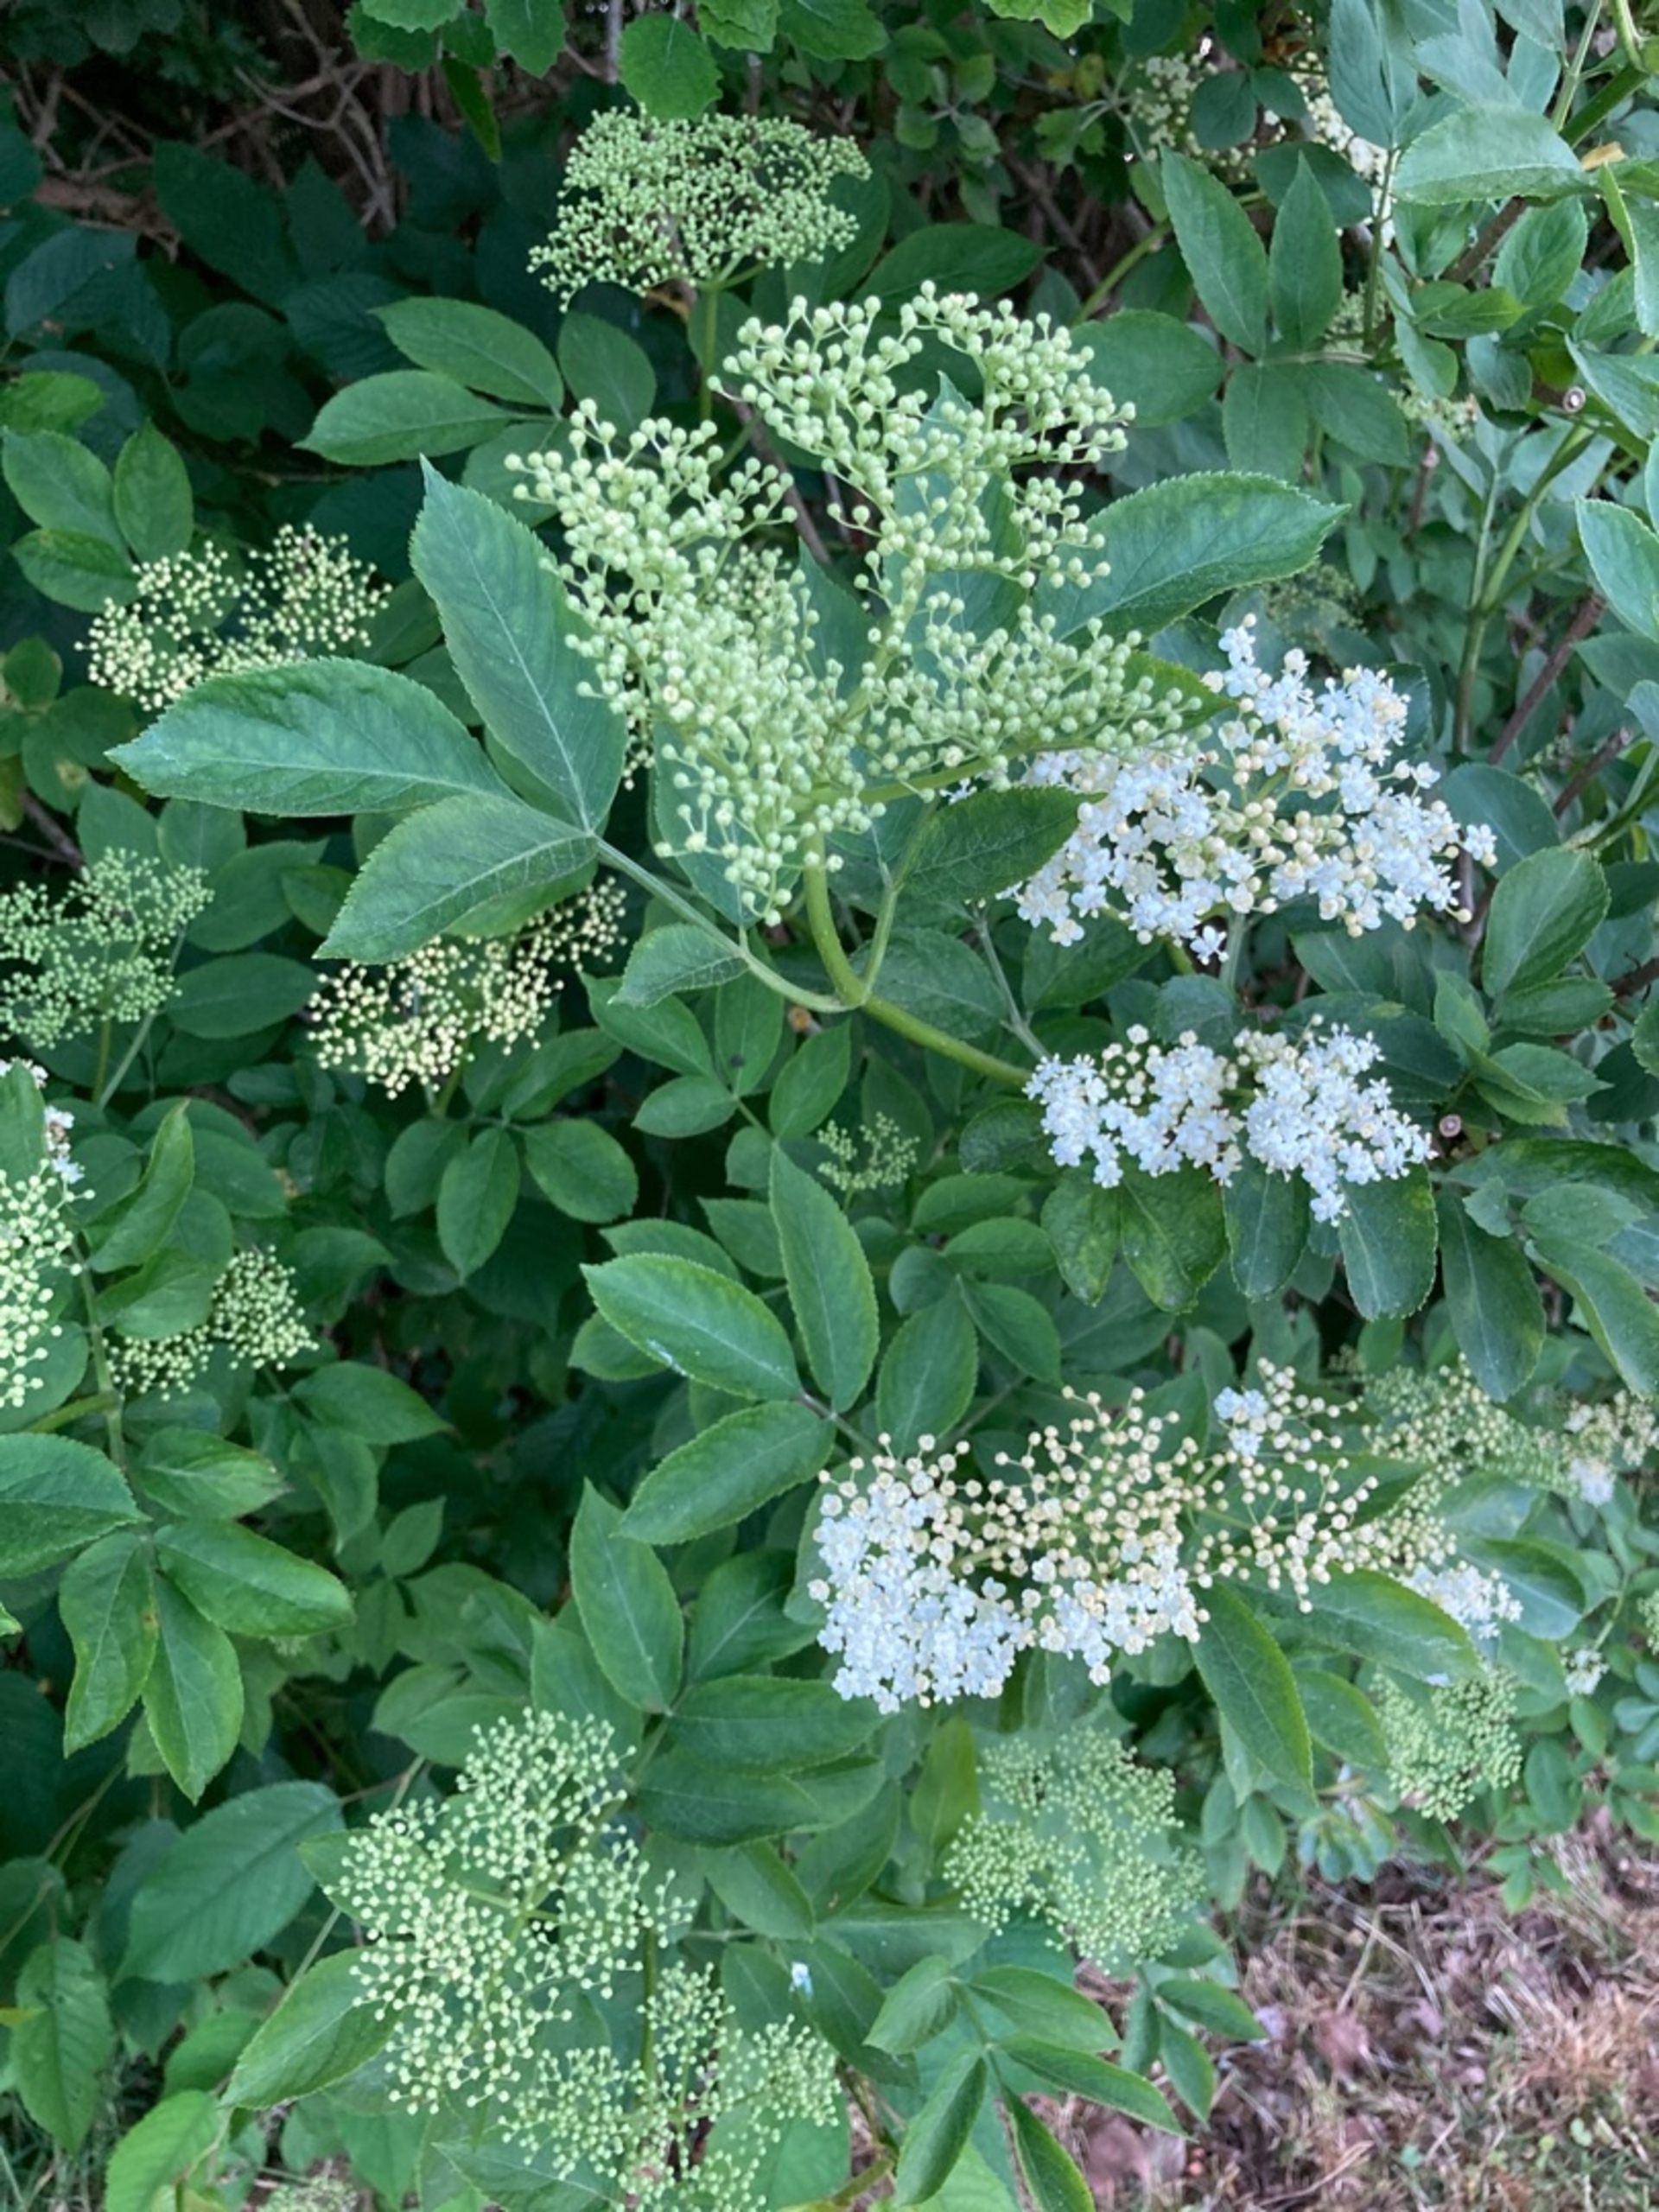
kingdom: Plantae
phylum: Tracheophyta
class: Magnoliopsida
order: Dipsacales
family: Viburnaceae
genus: Sambucus
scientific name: Sambucus nigra
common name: Almindelig hyld
